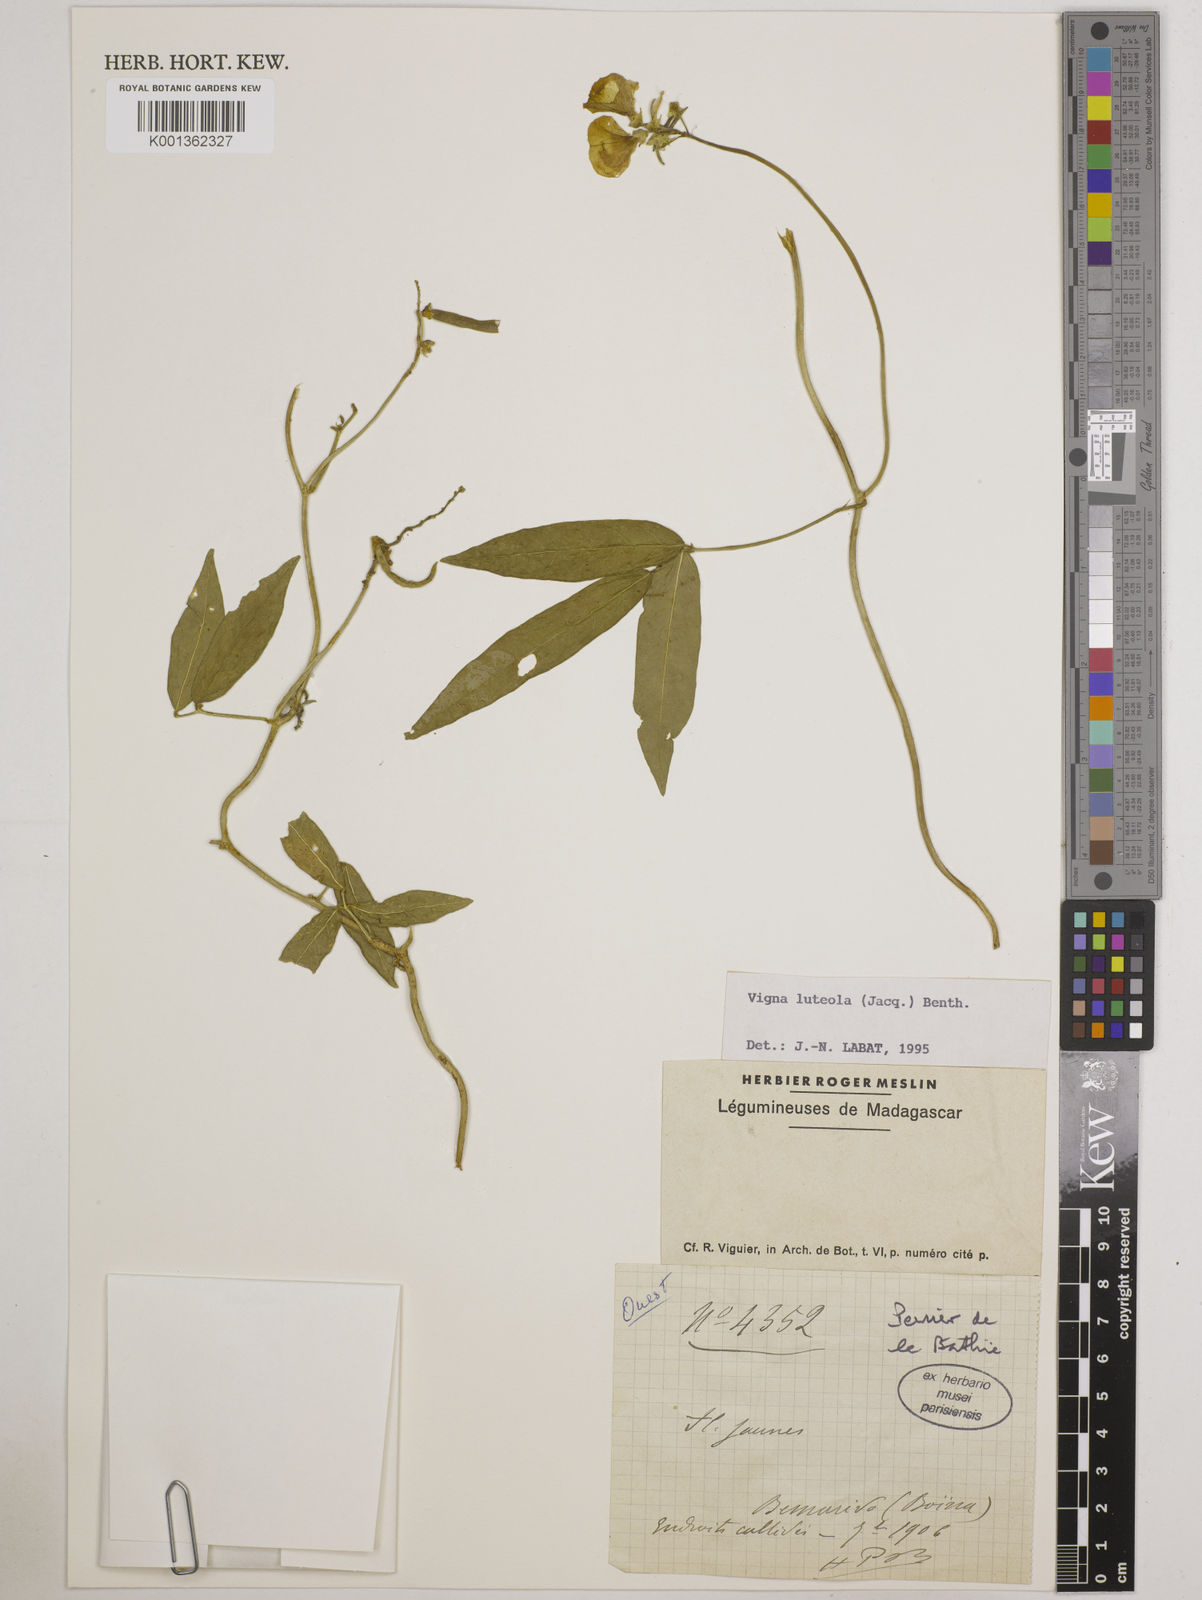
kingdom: Plantae
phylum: Tracheophyta
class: Magnoliopsida
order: Fabales
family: Fabaceae
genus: Vigna
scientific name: Vigna luteola
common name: Hairypod cowpea
